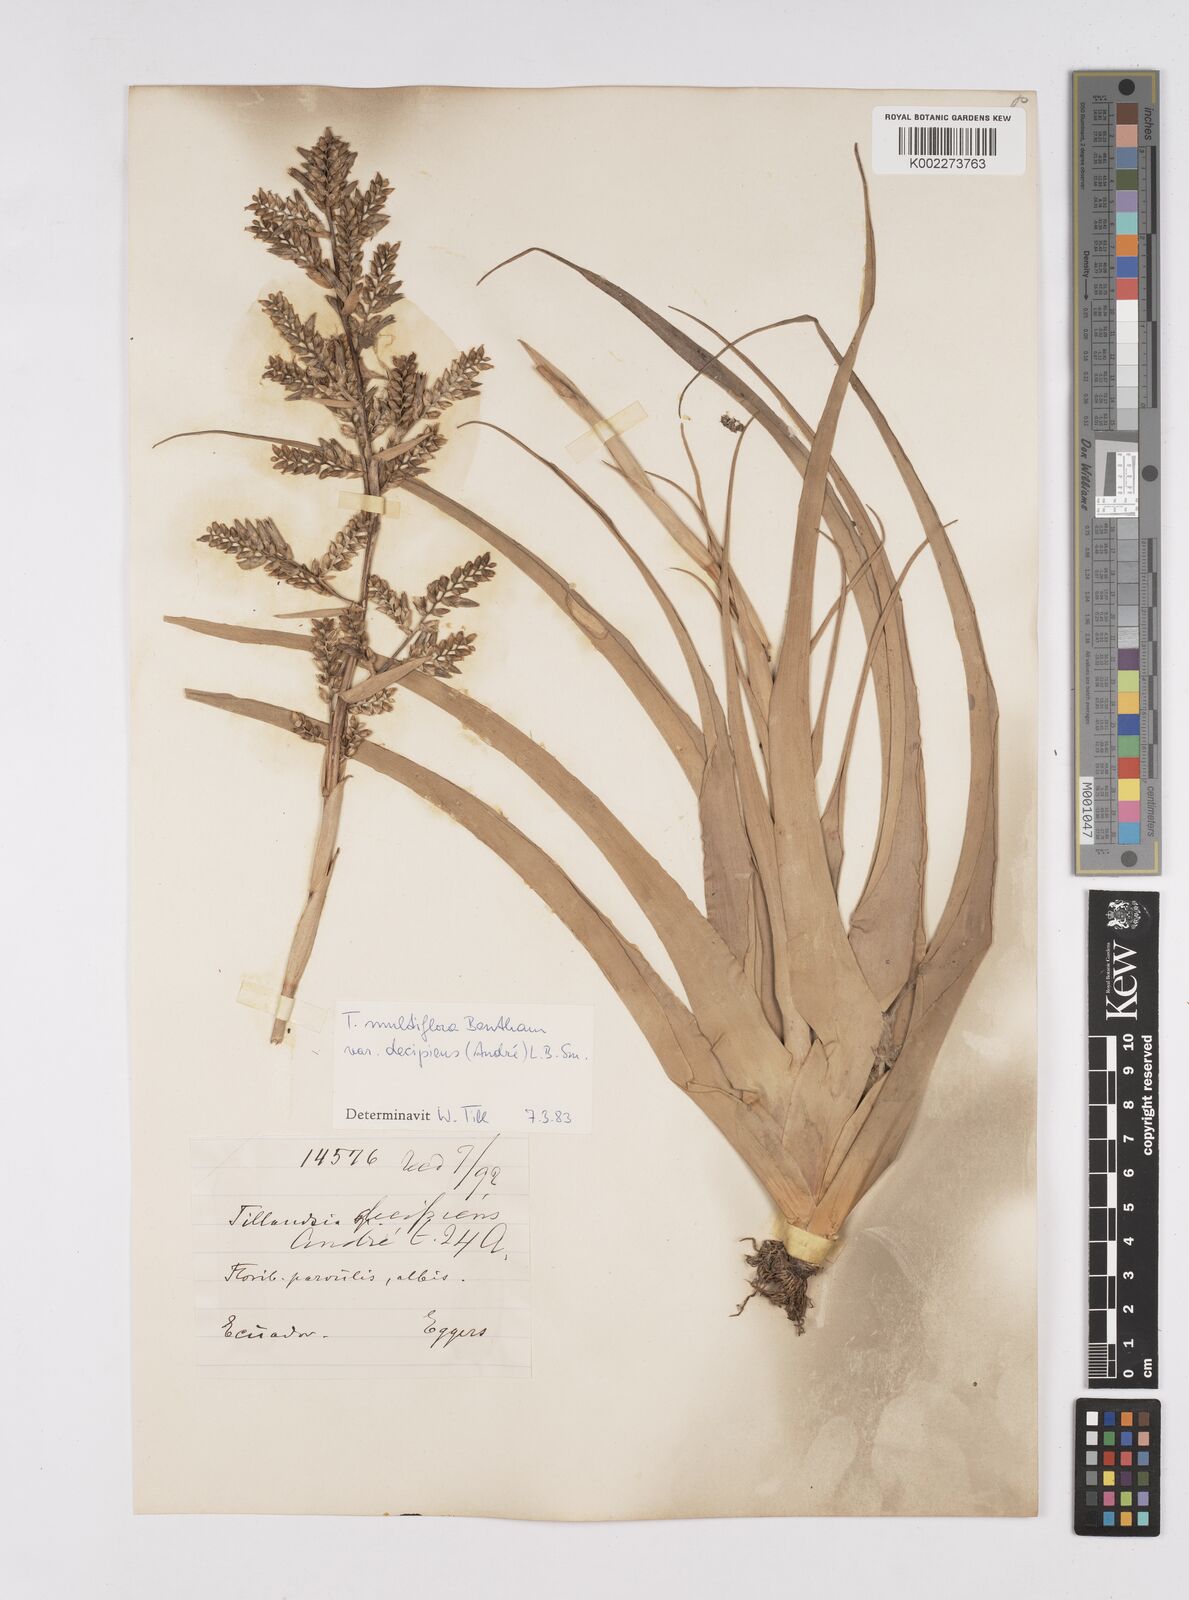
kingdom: Plantae
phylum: Tracheophyta
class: Liliopsida
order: Poales
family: Bromeliaceae
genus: Racinaea
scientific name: Racinaea multiflora
